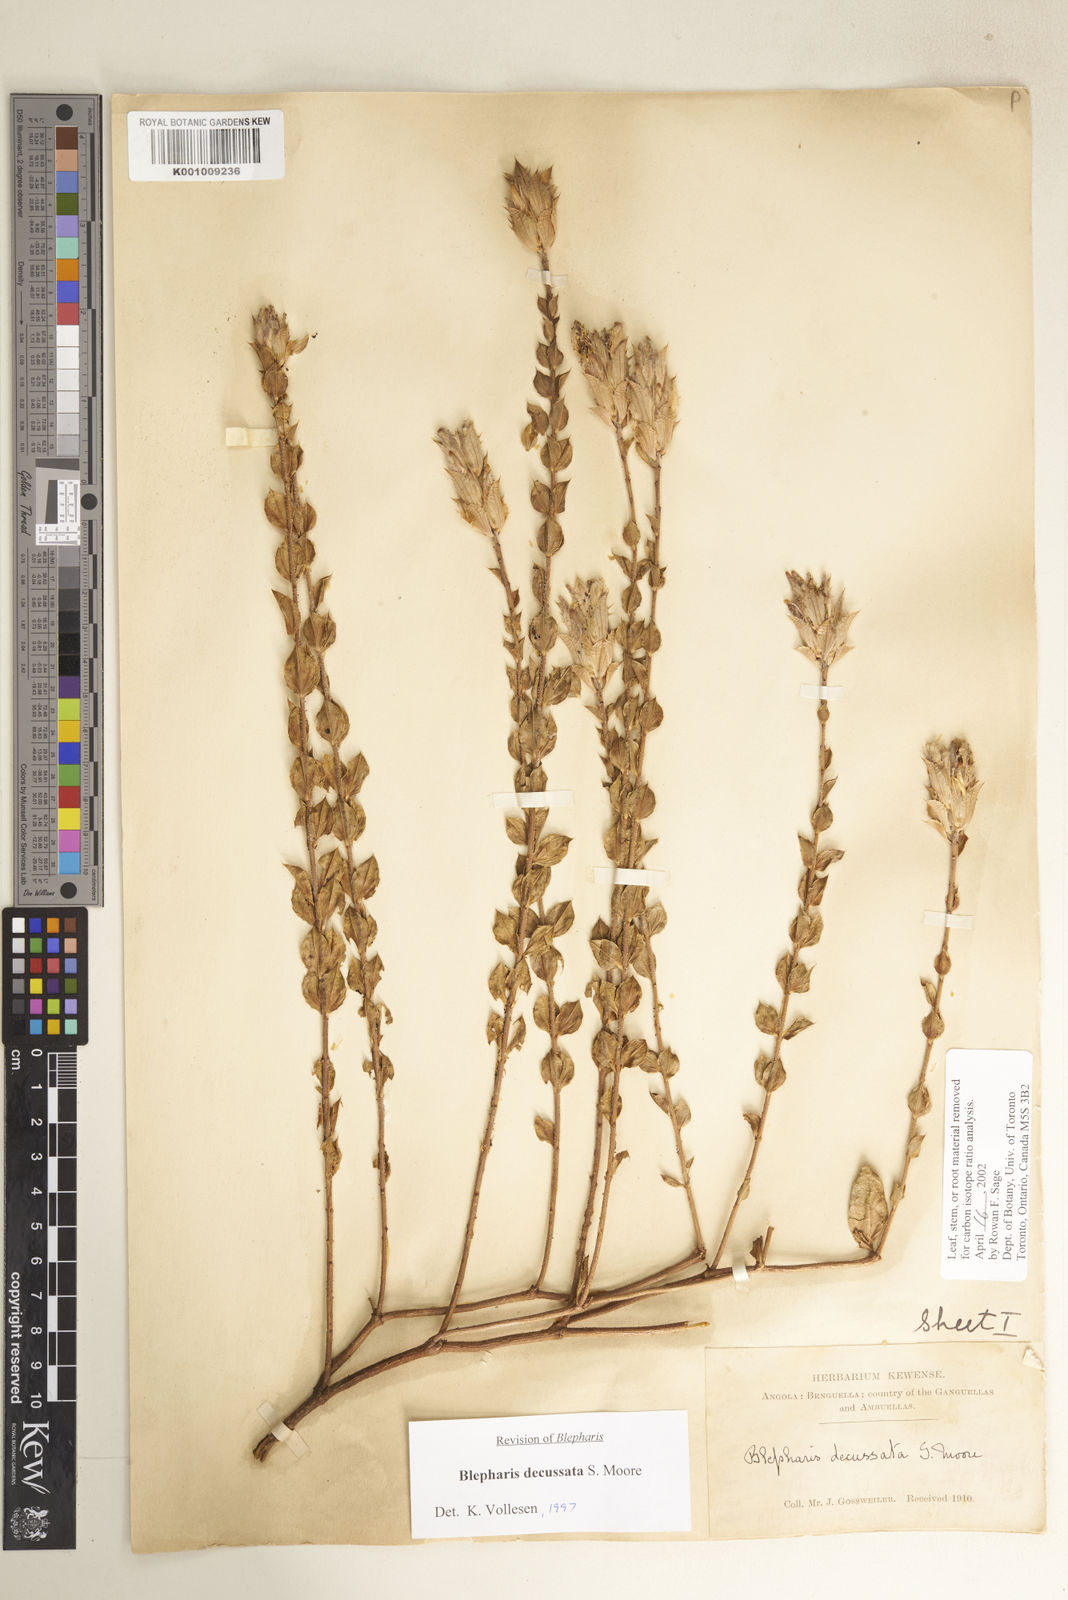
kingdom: Plantae
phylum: Tracheophyta
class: Magnoliopsida
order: Lamiales
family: Acanthaceae
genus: Blepharis
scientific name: Blepharis decussata
